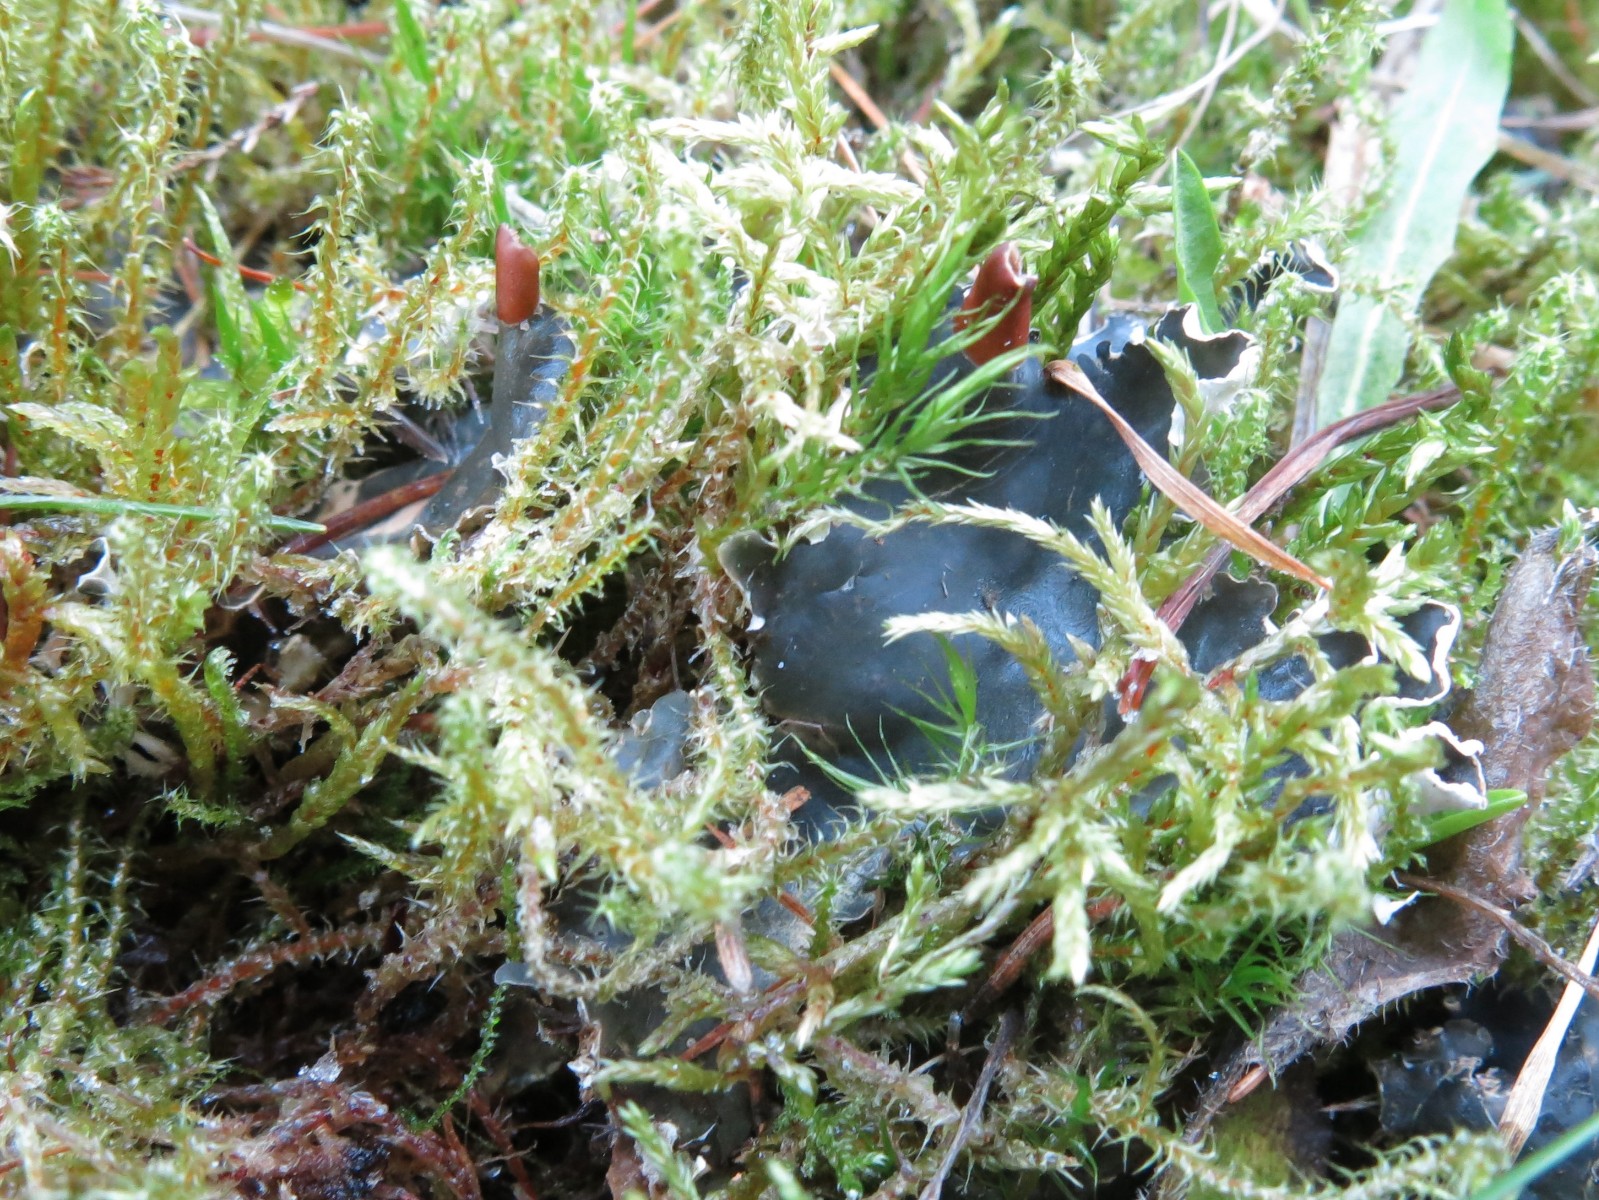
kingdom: Fungi
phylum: Ascomycota
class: Lecanoromycetes
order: Peltigerales
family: Peltigeraceae
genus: Peltigera
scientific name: Peltigera hymenina
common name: hinde-skjoldlav
